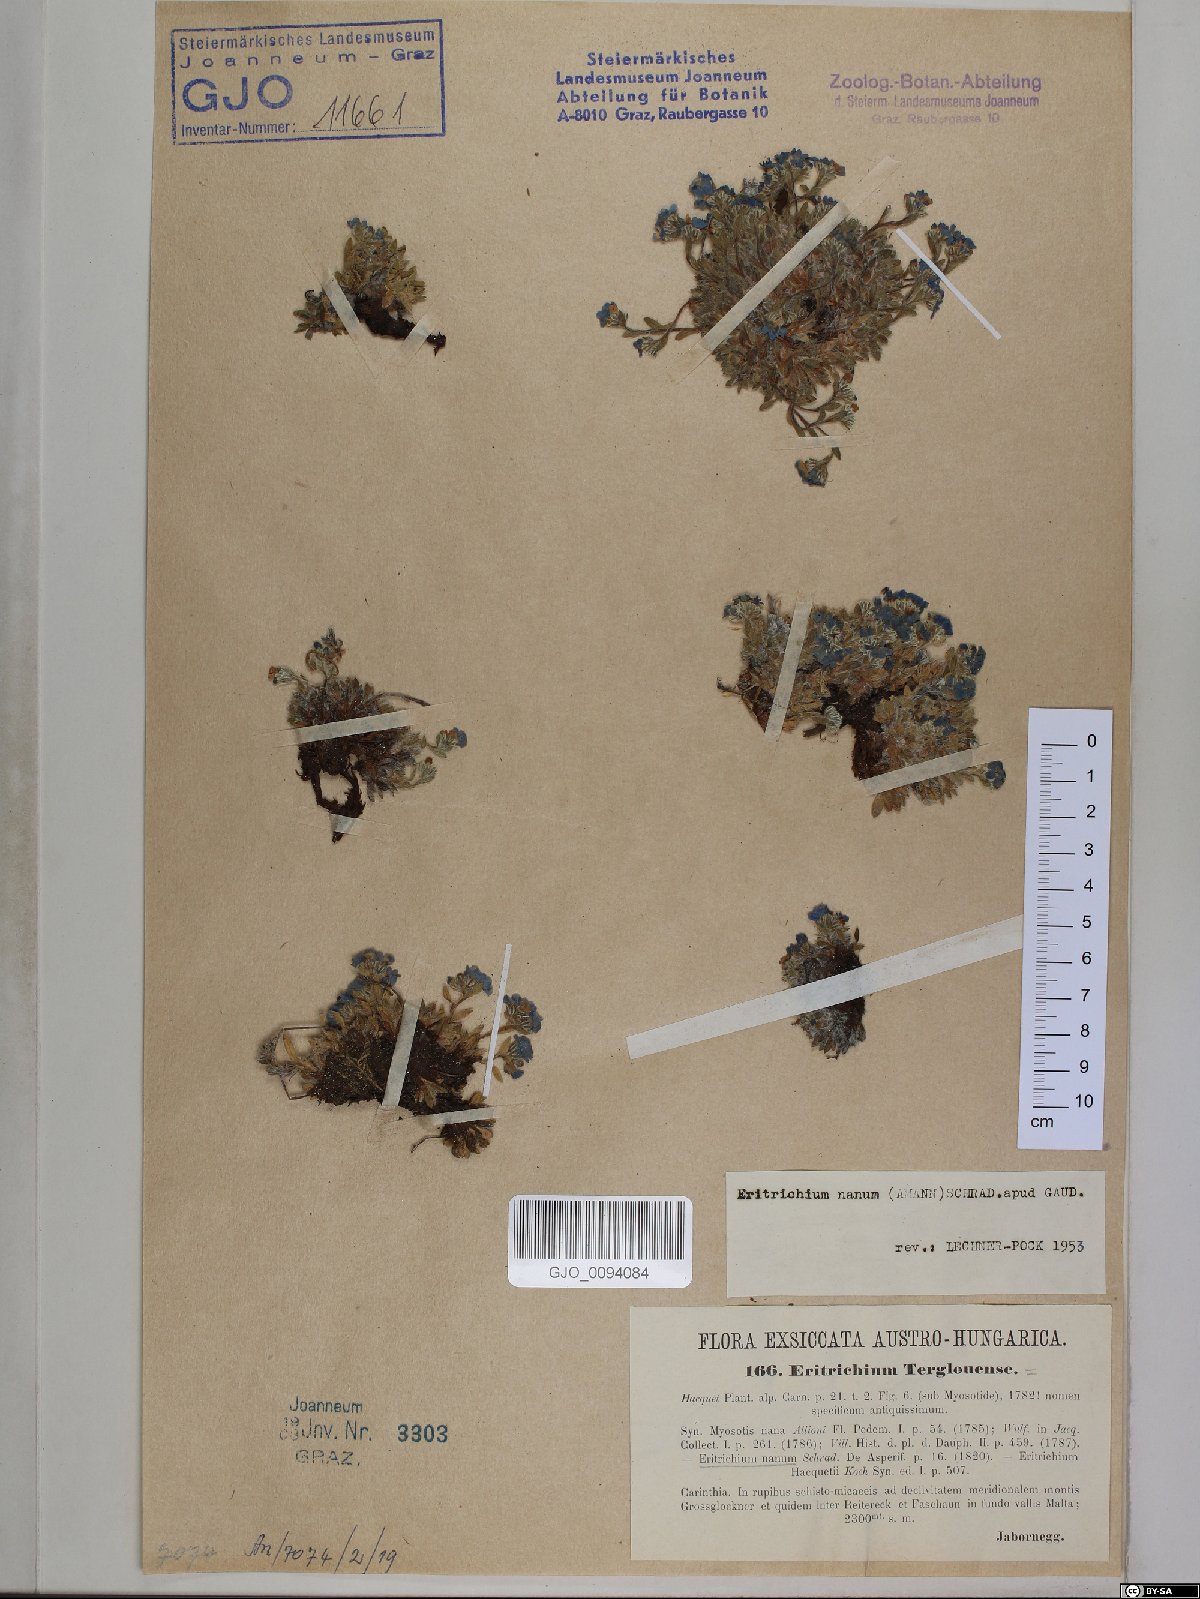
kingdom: Plantae
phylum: Tracheophyta
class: Magnoliopsida
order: Boraginales
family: Boraginaceae
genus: Eritrichium
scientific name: Eritrichium nanum
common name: King-of-the-alps
